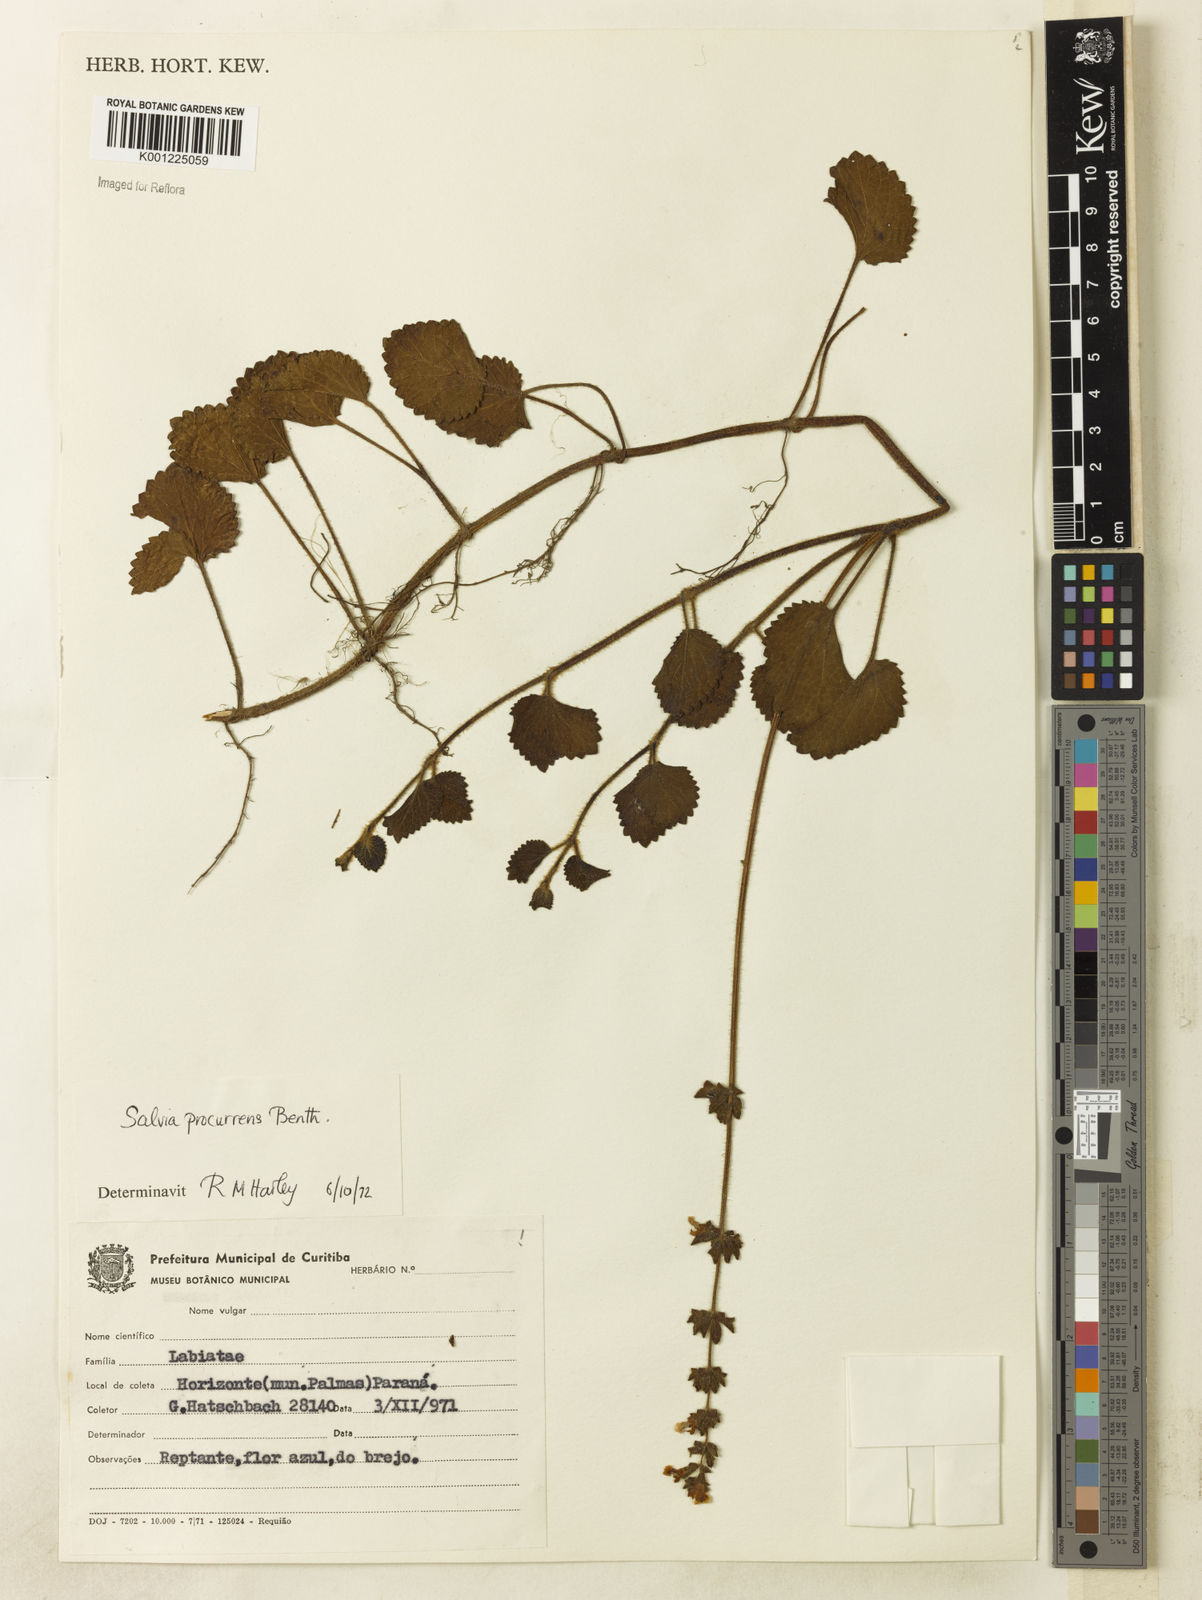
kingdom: Plantae
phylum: Tracheophyta
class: Magnoliopsida
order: Lamiales
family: Lamiaceae
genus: Salvia
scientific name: Salvia procurrens
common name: Blue creeper
